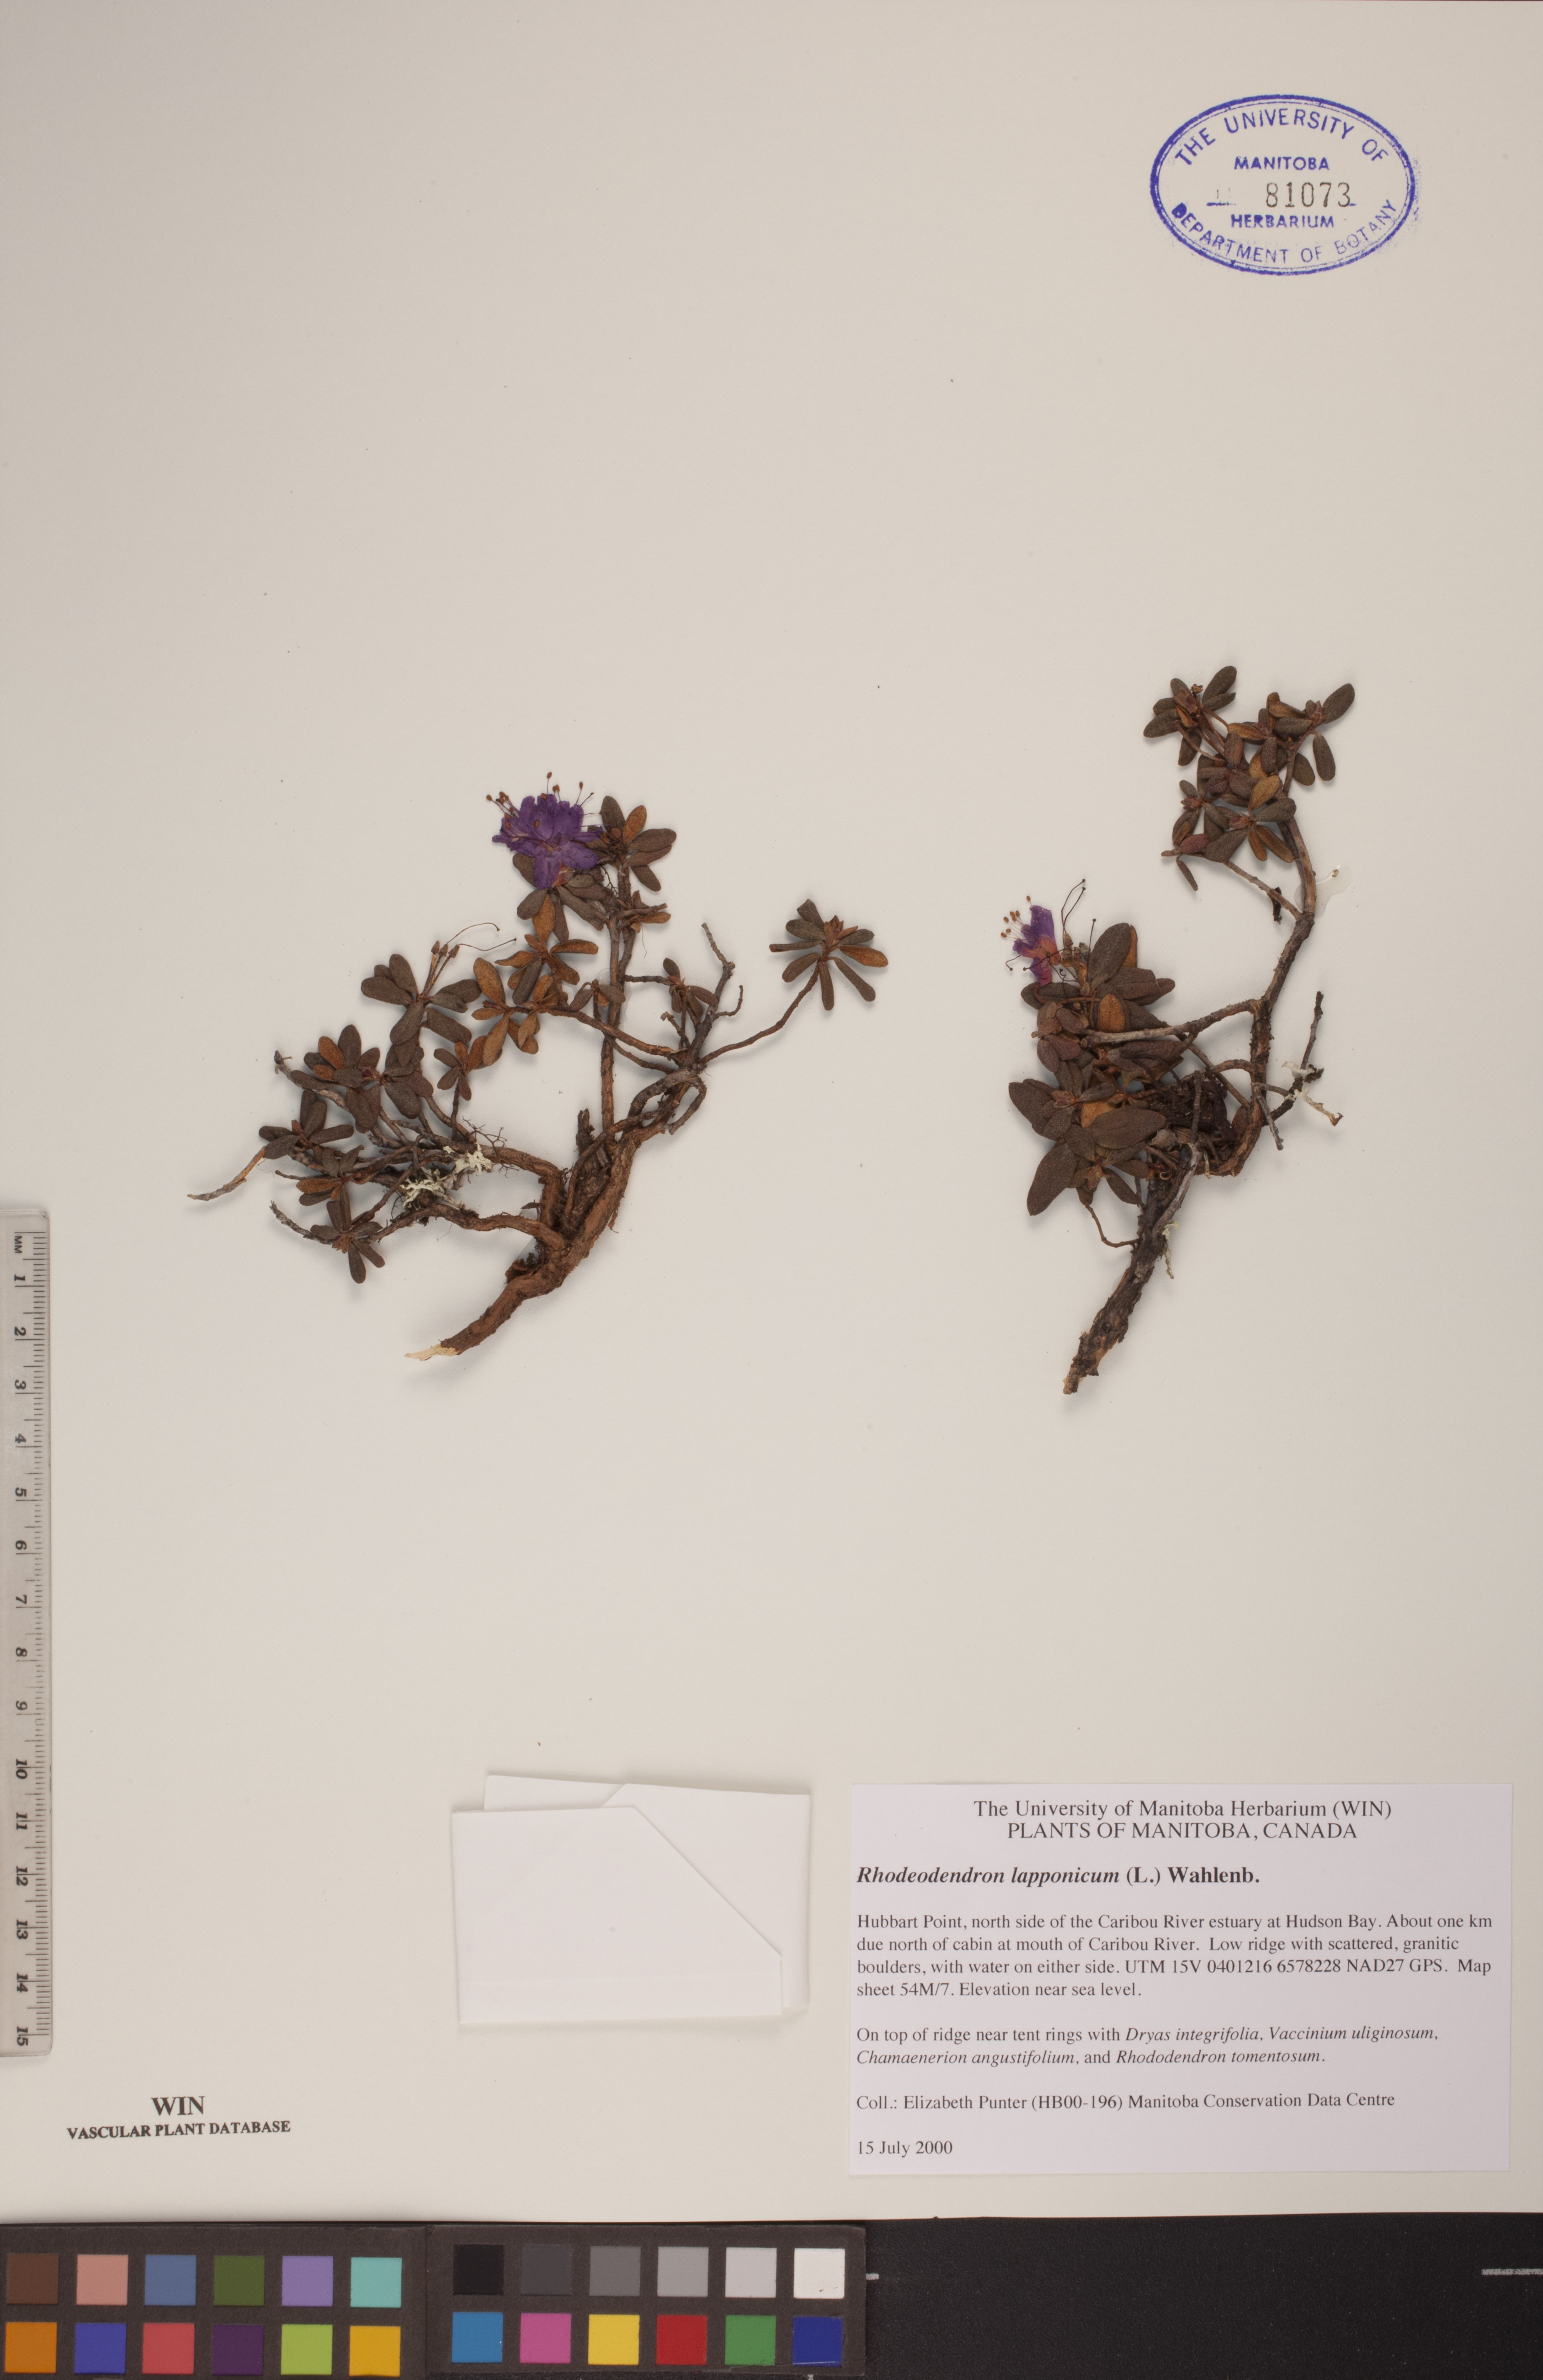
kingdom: Plantae
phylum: Tracheophyta
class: Magnoliopsida
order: Ericales
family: Ericaceae
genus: Rhododendron
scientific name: Rhododendron lapponicum
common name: Lapland rhododendron
